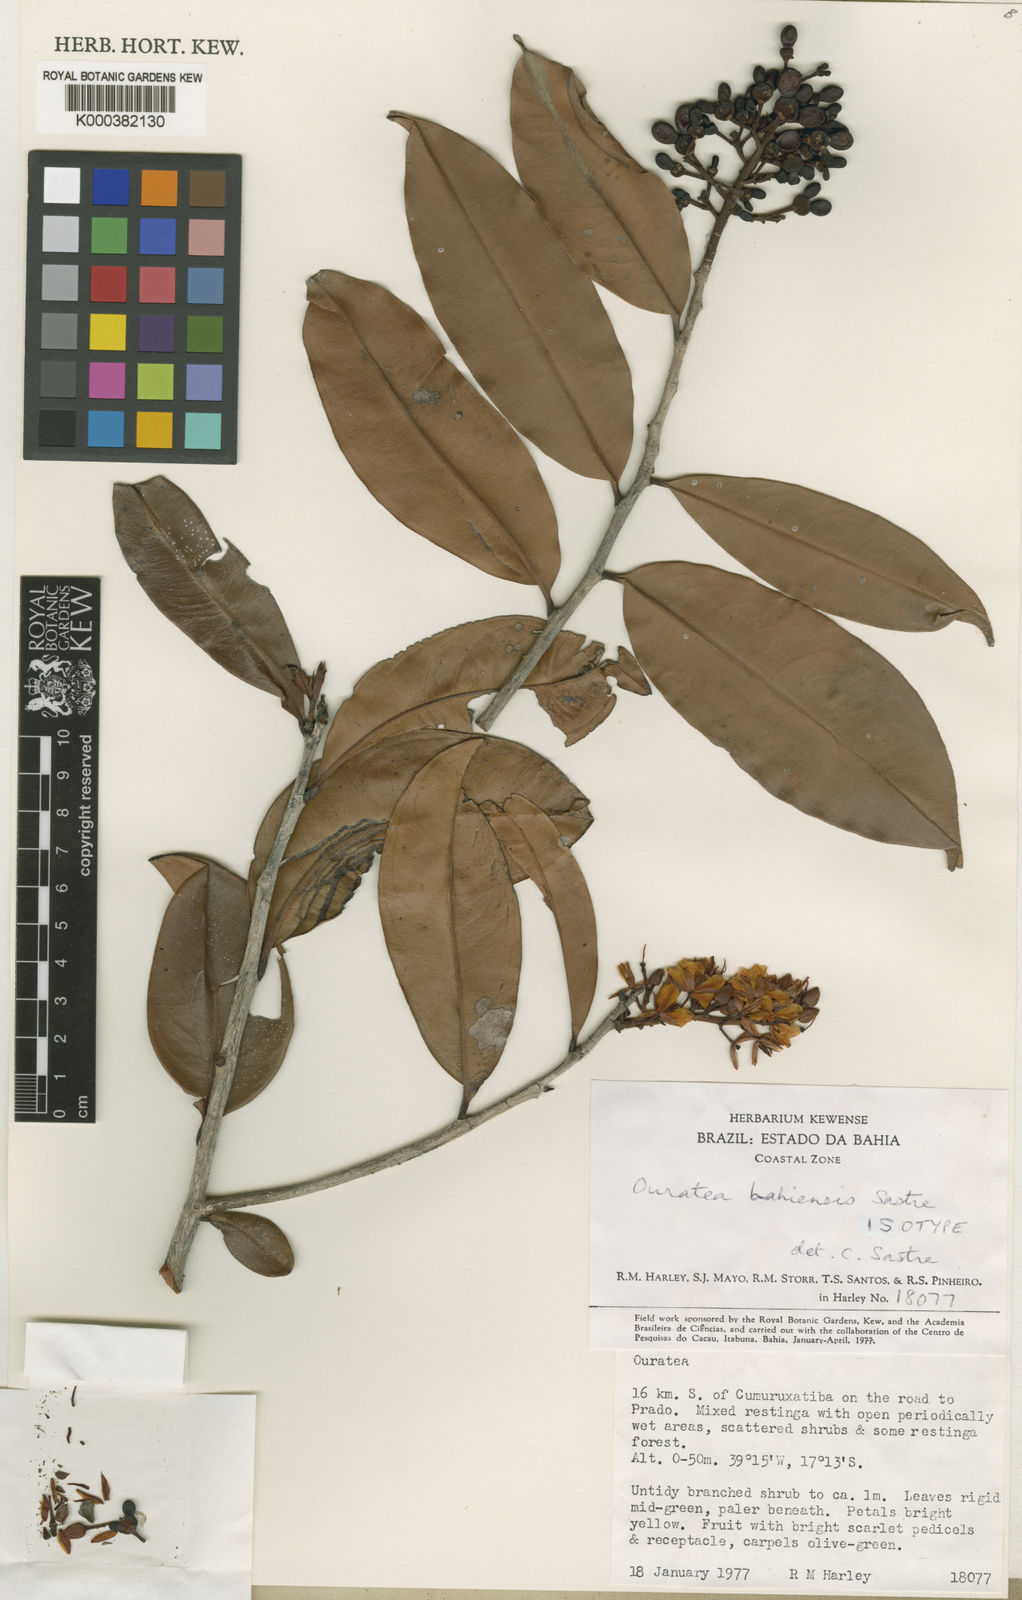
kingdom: Plantae
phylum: Tracheophyta
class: Magnoliopsida
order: Malpighiales
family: Ochnaceae
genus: Ouratea
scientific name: Ouratea bahiensis
